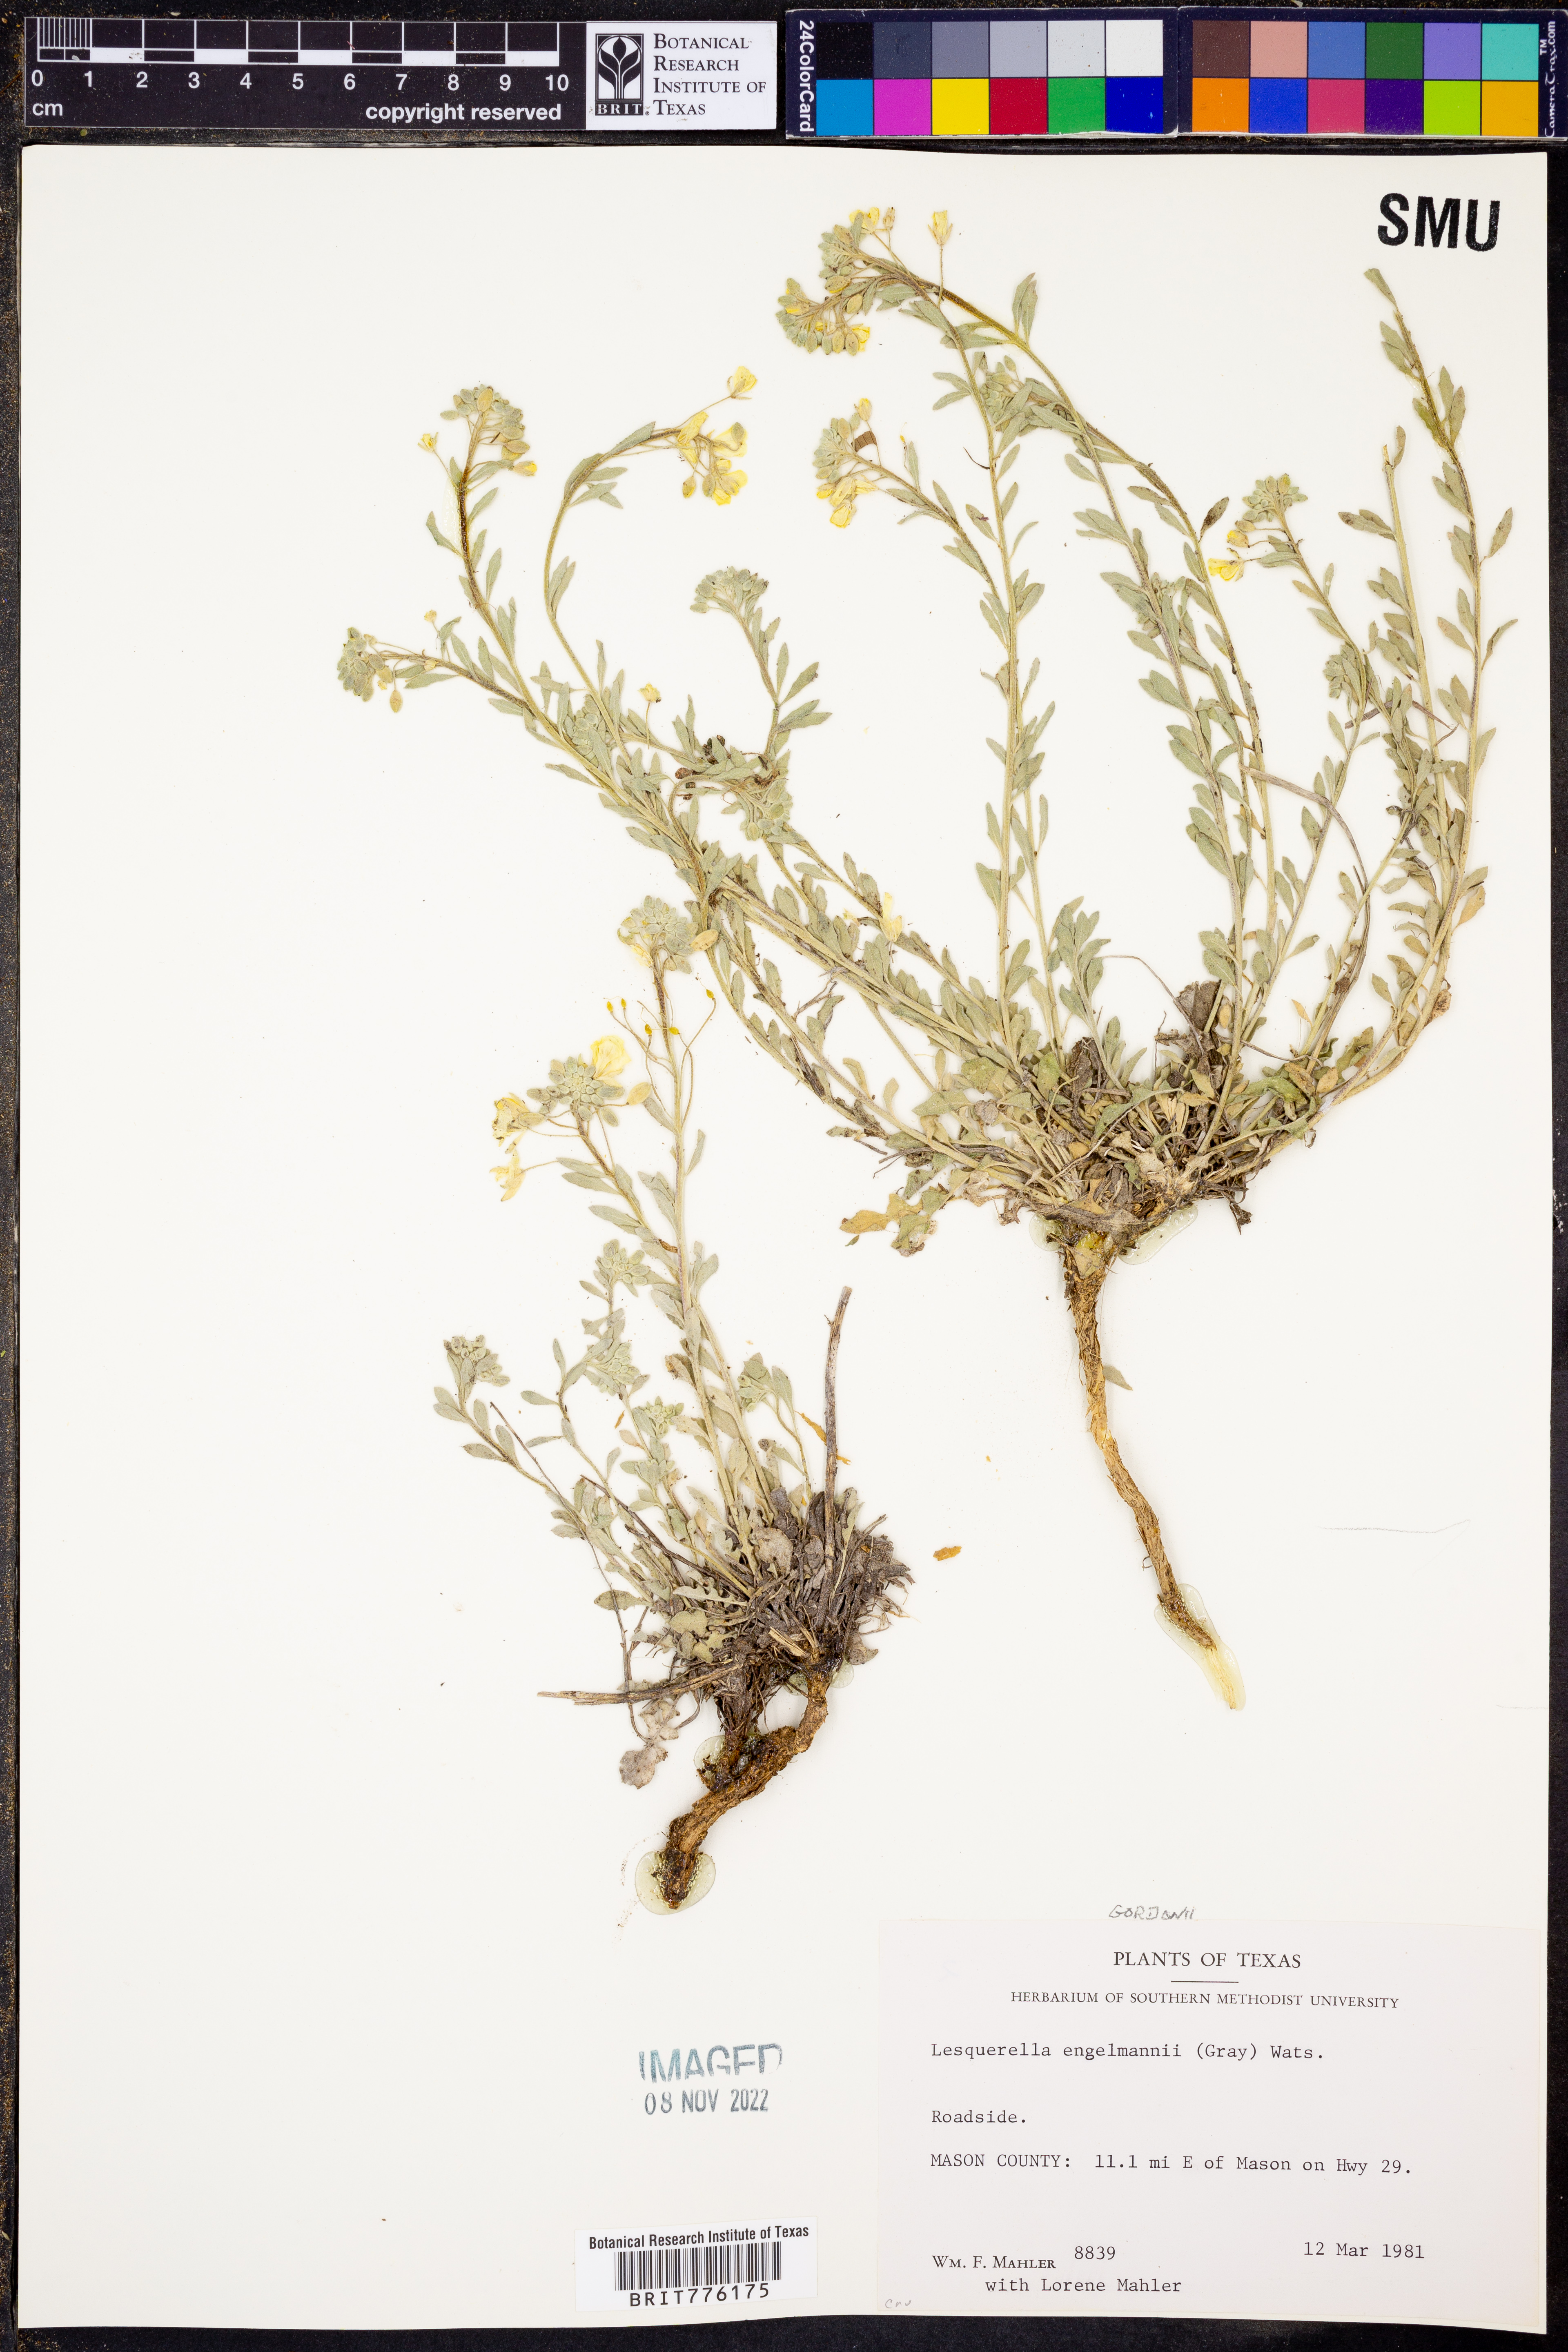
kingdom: Plantae
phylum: Tracheophyta
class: Magnoliopsida
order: Brassicales
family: Brassicaceae
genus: Physaria
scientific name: Physaria engelmannii
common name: Engelmann's bladderpod
